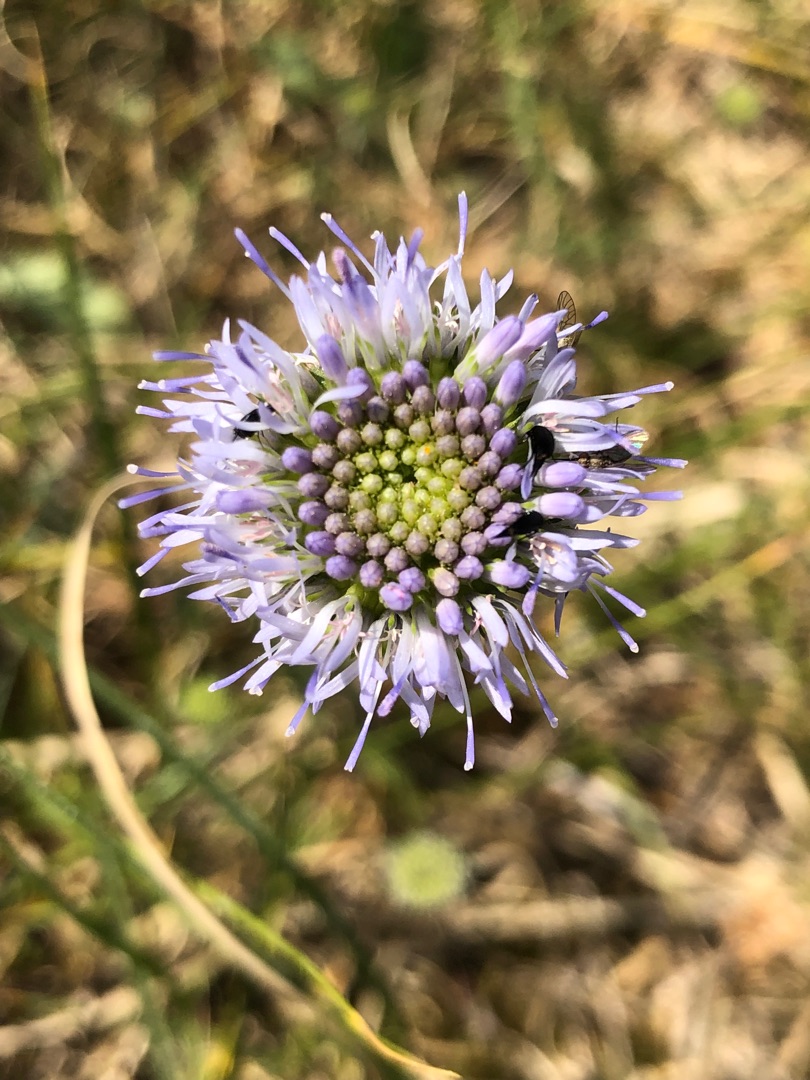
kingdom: Plantae
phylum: Tracheophyta
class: Magnoliopsida
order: Asterales
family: Campanulaceae
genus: Jasione
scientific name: Jasione montana
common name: Blåmunke
